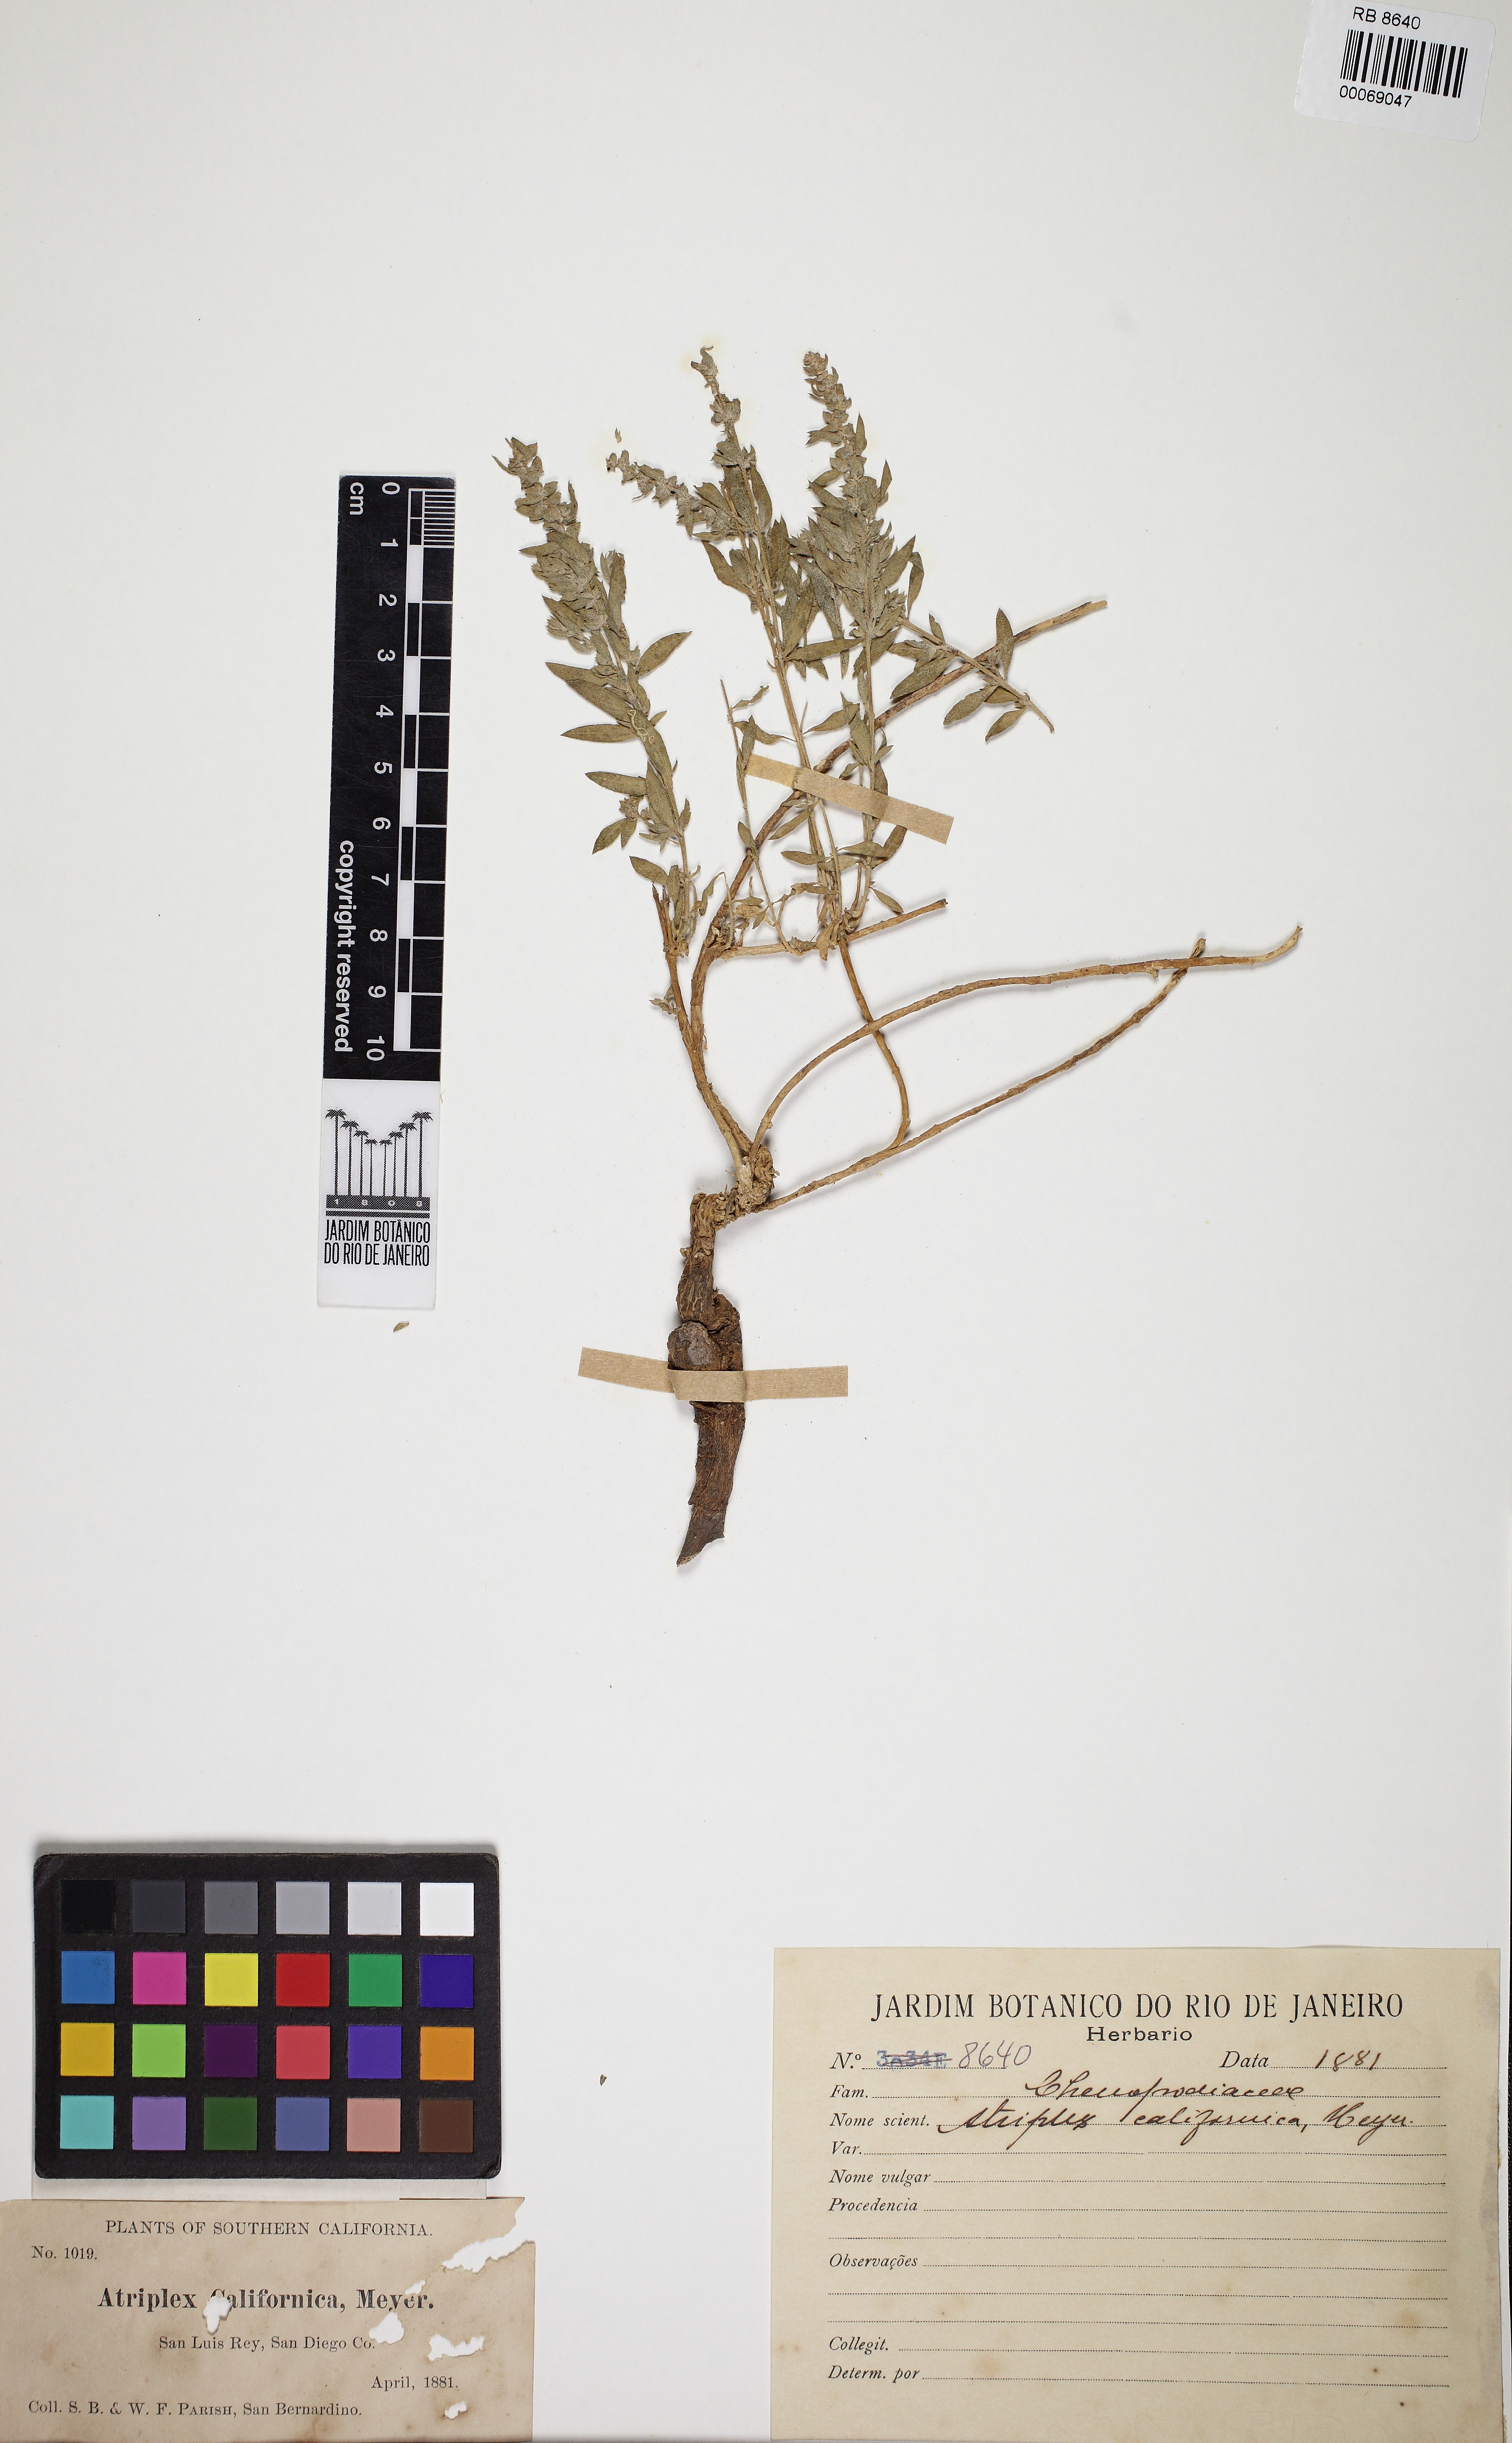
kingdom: Plantae
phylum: Tracheophyta
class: Magnoliopsida
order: Caryophyllales
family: Amaranthaceae
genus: Extriplex
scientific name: Extriplex californica
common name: California saltbush
